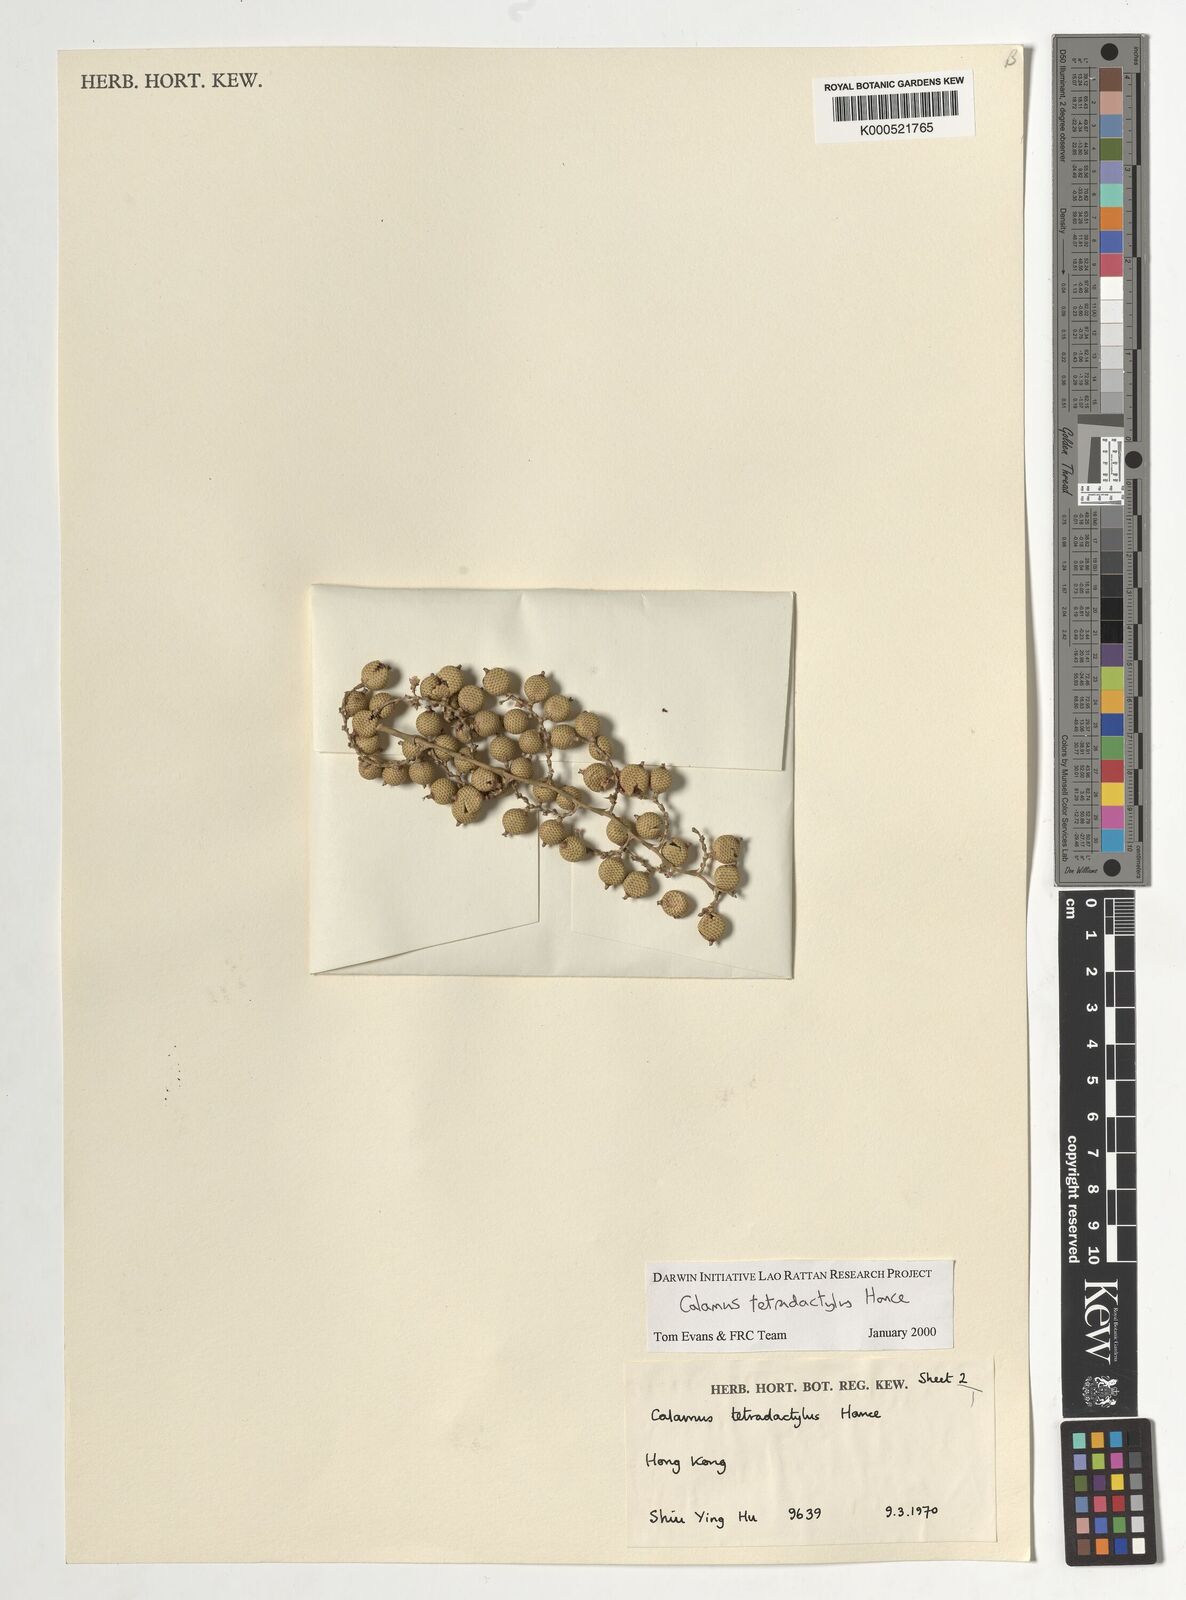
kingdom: Plantae
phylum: Tracheophyta
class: Liliopsida
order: Arecales
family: Arecaceae
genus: Calamus
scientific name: Calamus tetradactylus
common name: White rattan
